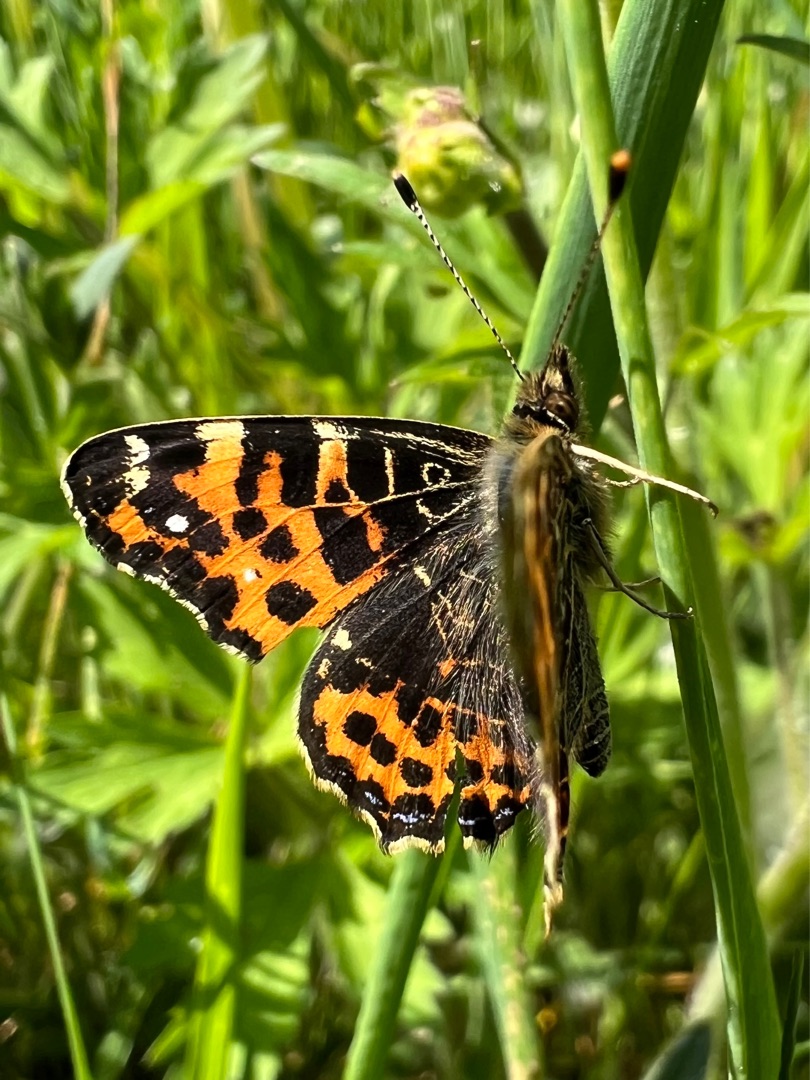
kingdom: Animalia
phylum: Arthropoda
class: Insecta
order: Lepidoptera
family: Nymphalidae
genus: Araschnia
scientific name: Araschnia levana
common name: Nældesommerfugl
